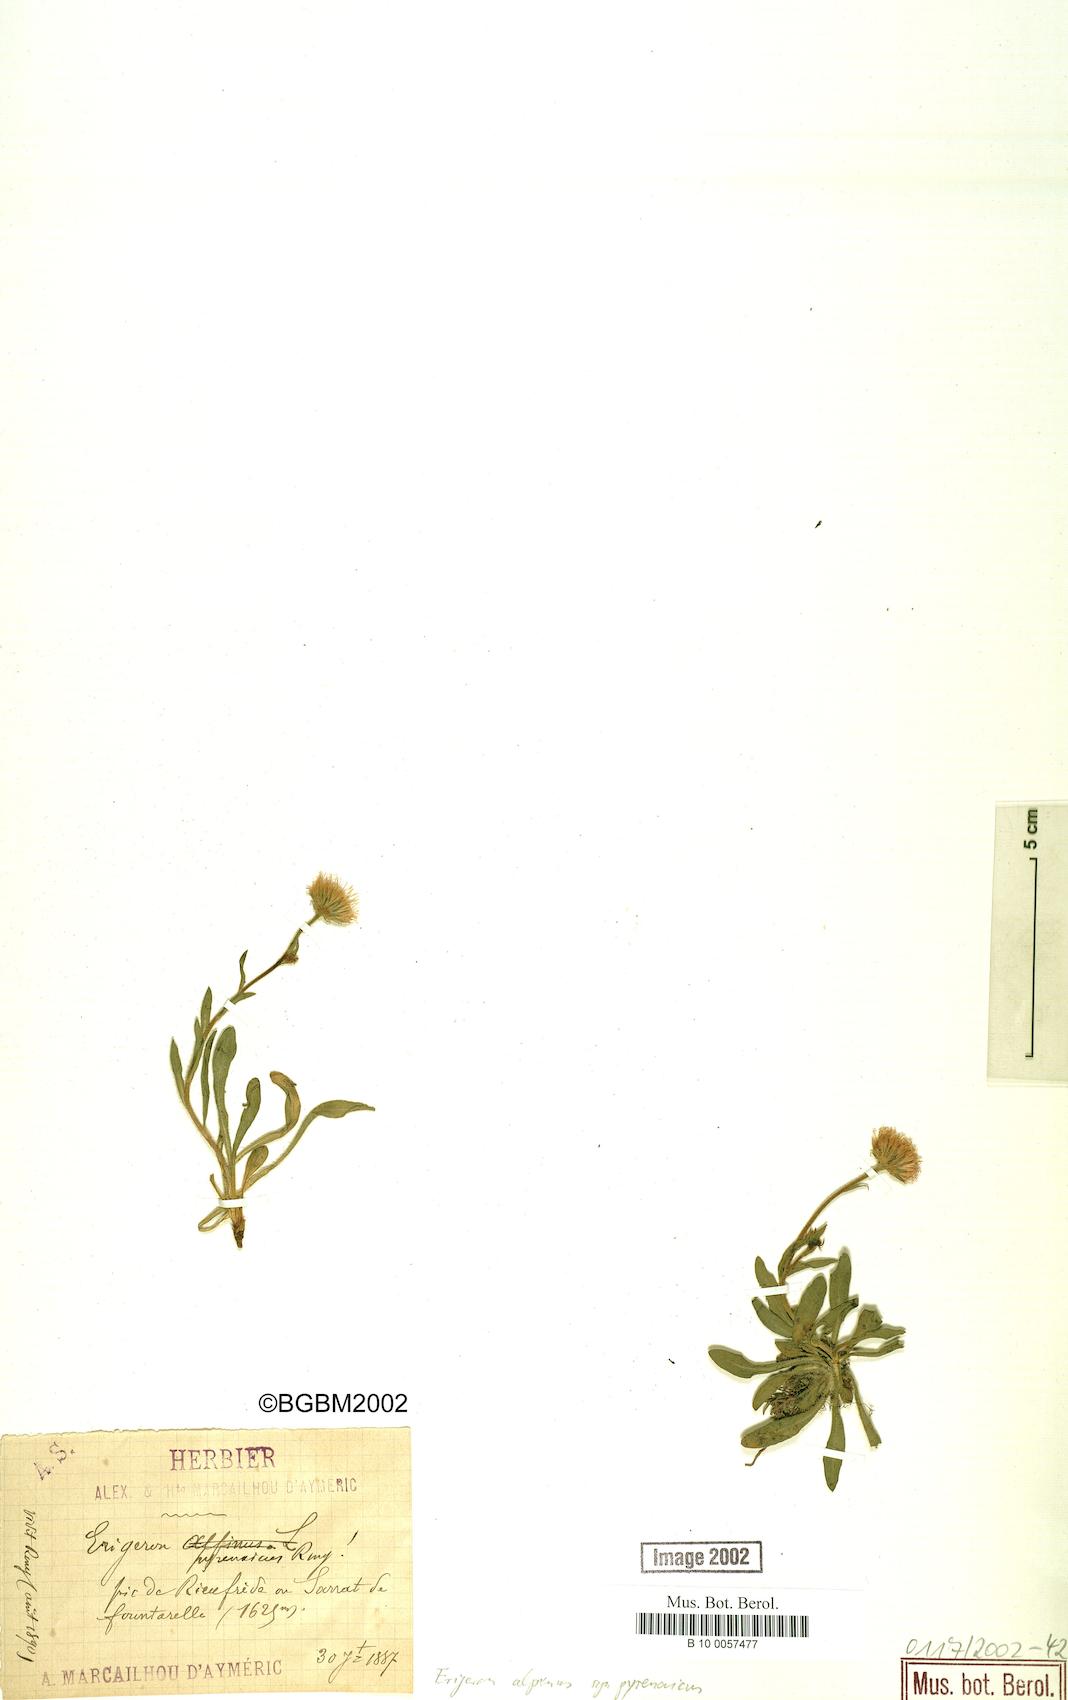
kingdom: Plantae
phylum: Tracheophyta
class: Magnoliopsida
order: Asterales
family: Asteraceae
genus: Erigeron
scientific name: Erigeron uniflorus
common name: Northern daisy
